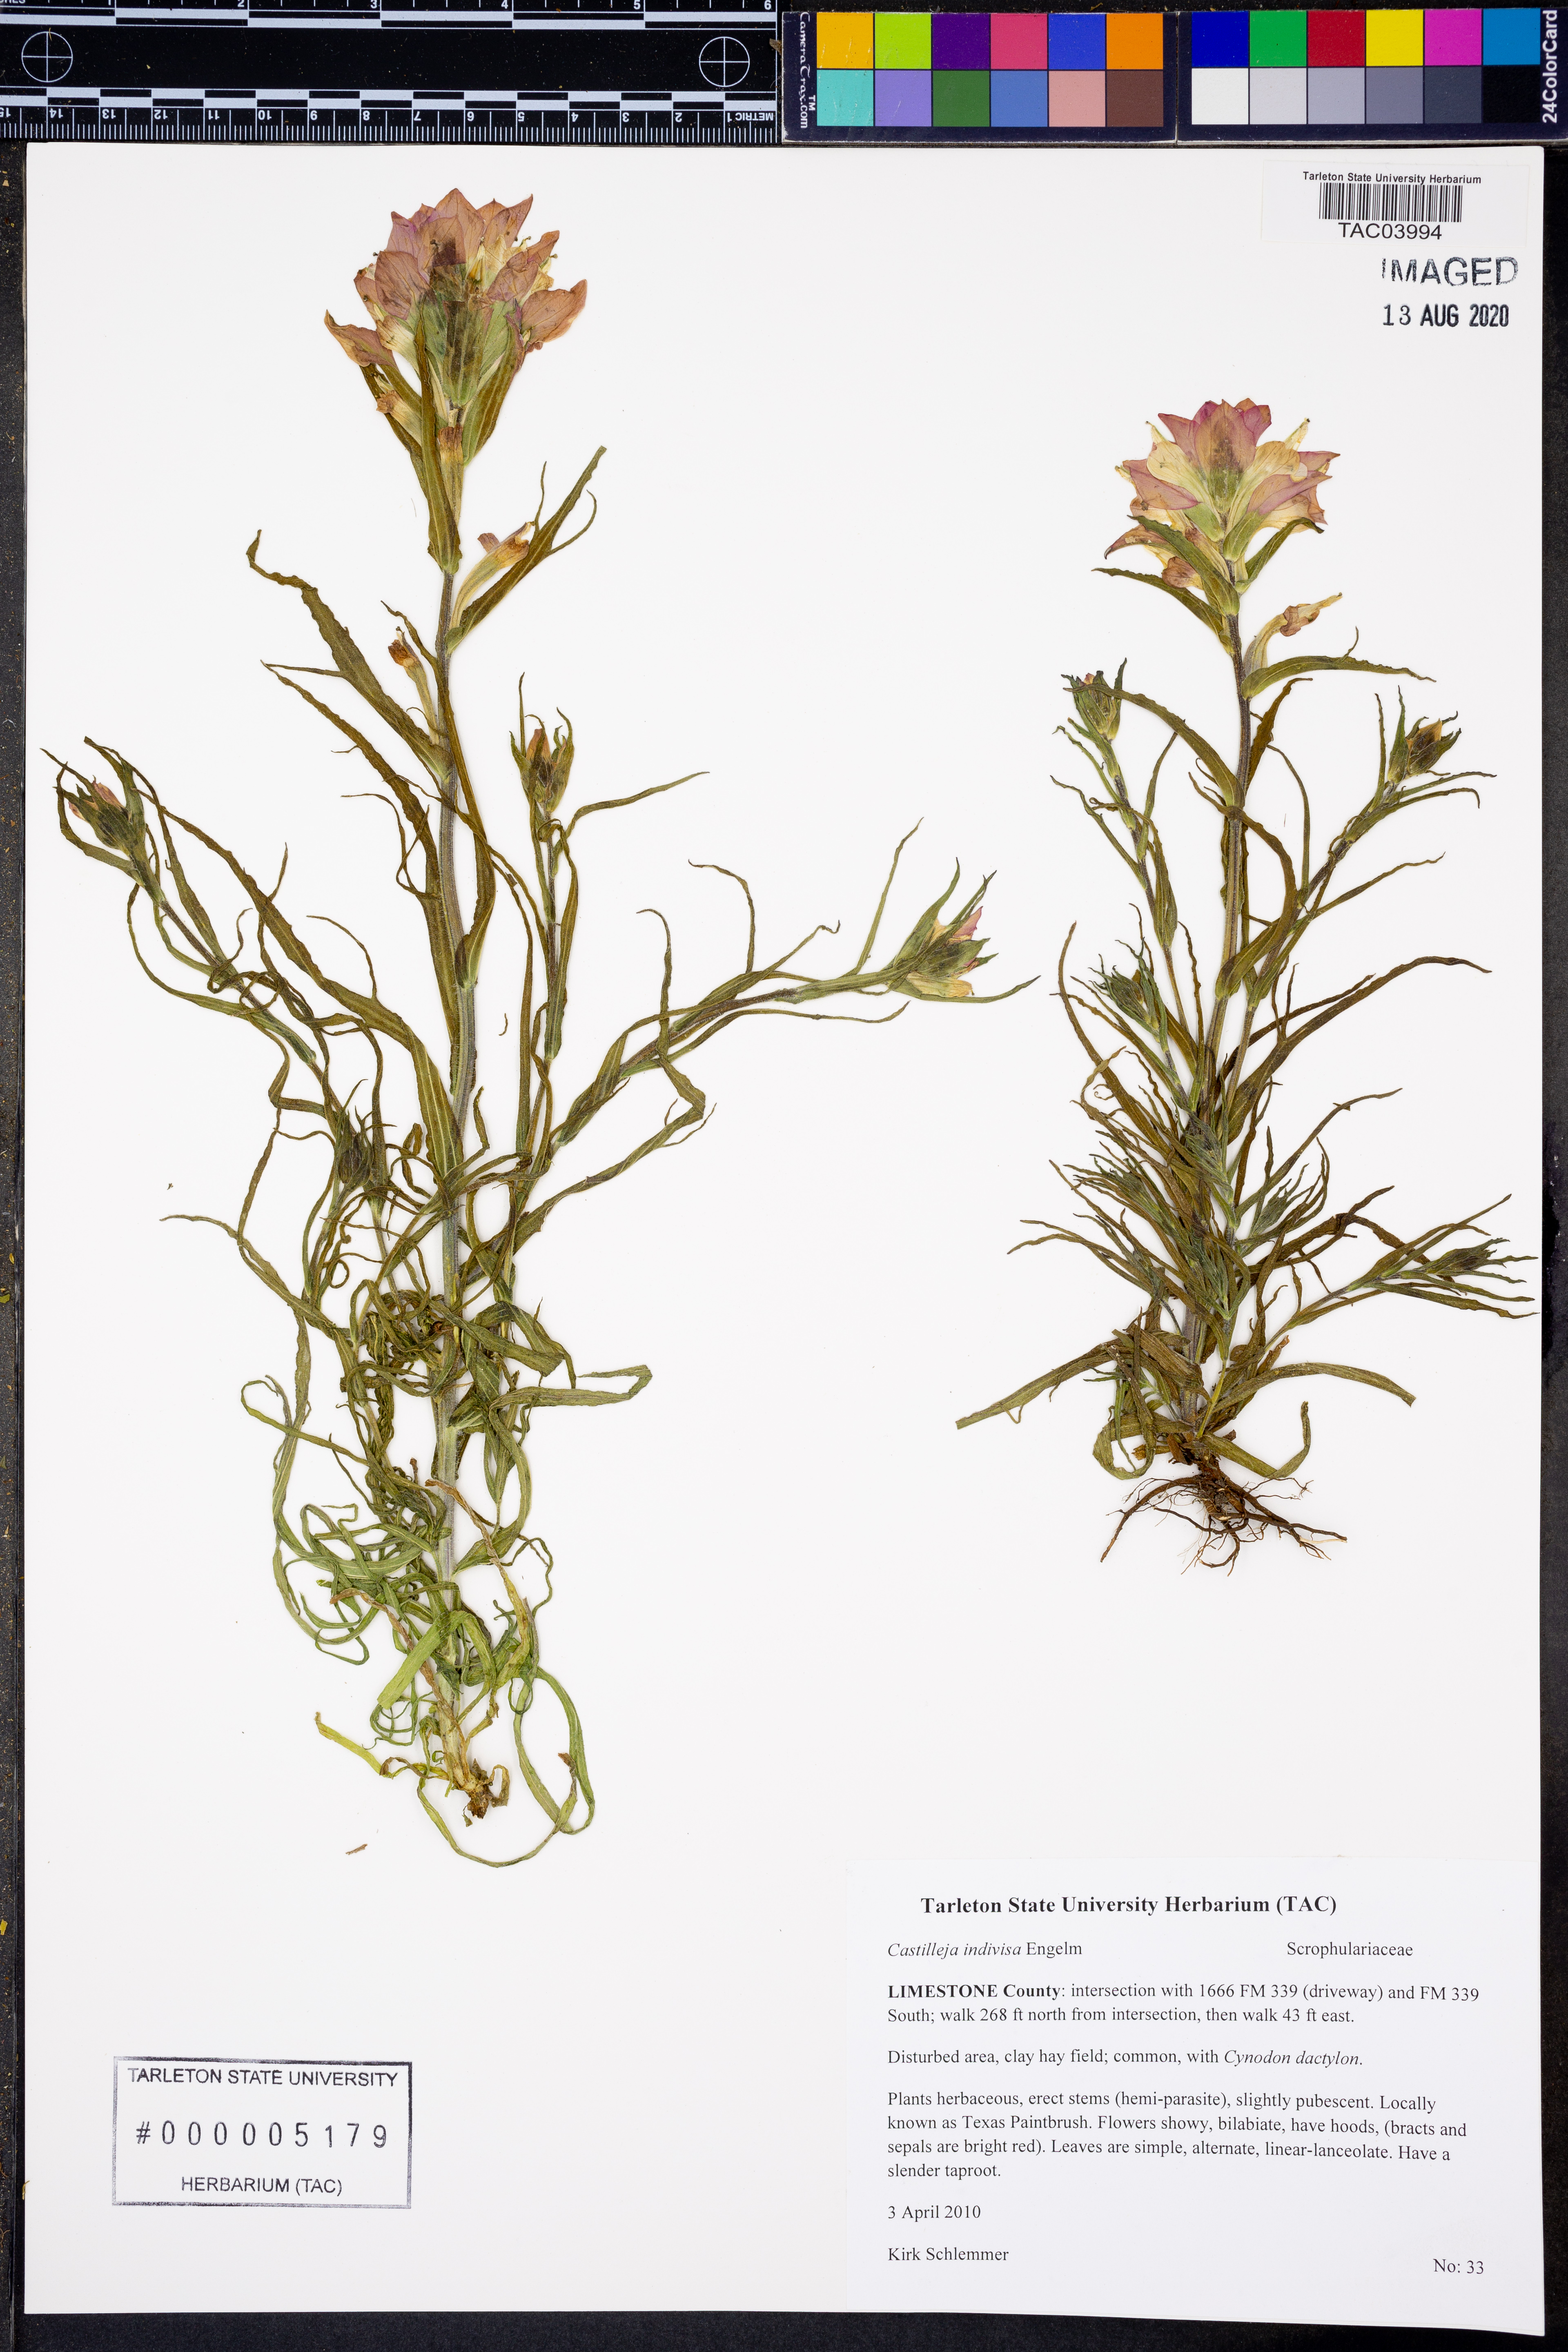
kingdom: Plantae
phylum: Tracheophyta
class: Magnoliopsida
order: Lamiales
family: Orobanchaceae
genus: Castilleja
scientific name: Castilleja indivisa
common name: Texas paintbrush
